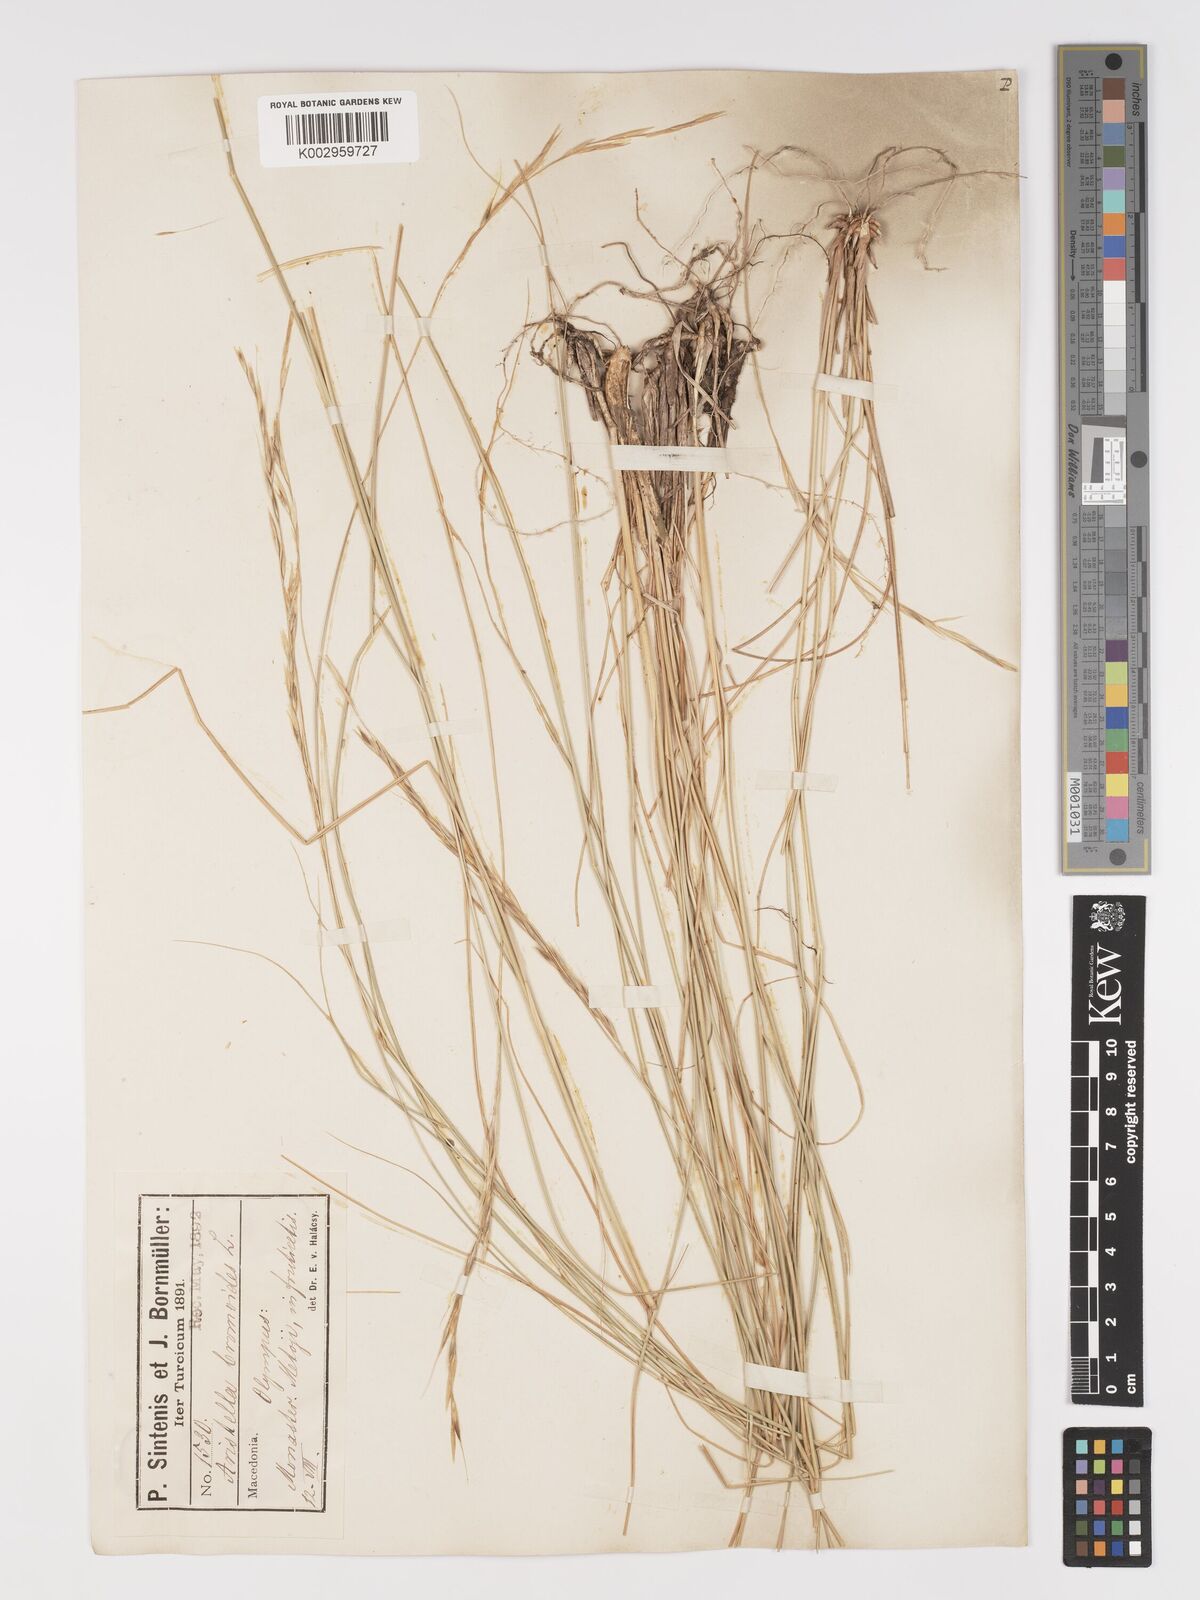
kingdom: Plantae
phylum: Tracheophyta
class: Liliopsida
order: Poales
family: Poaceae
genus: Achnatherum
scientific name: Achnatherum bromoides
